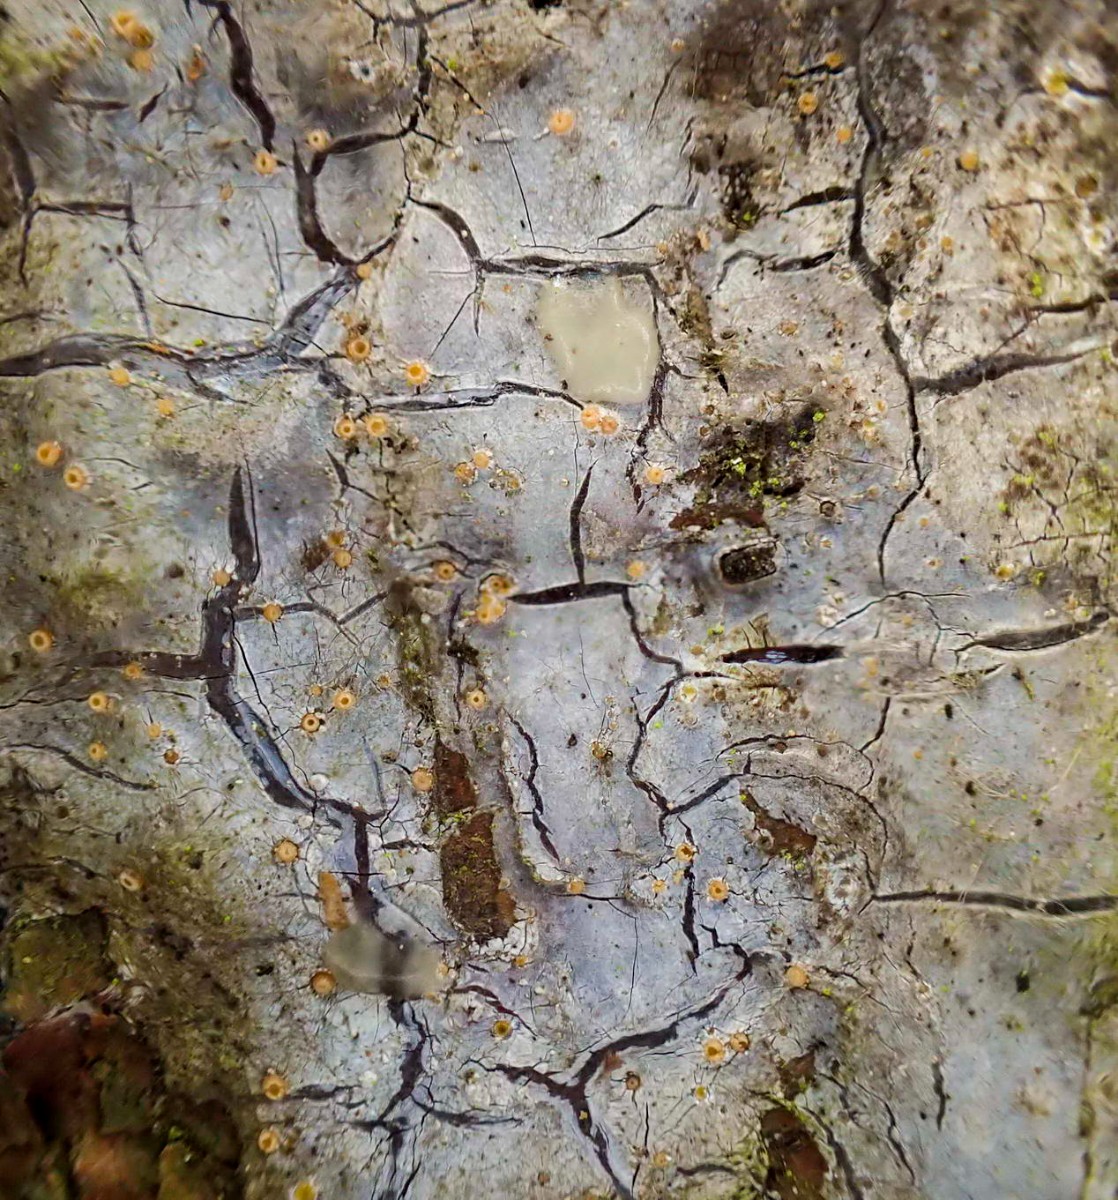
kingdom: Fungi
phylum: Ascomycota
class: Sareomycetes
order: Sareales
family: Sareaceae
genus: Sarea
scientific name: Sarea resinae
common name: orangegul harpiksskive
